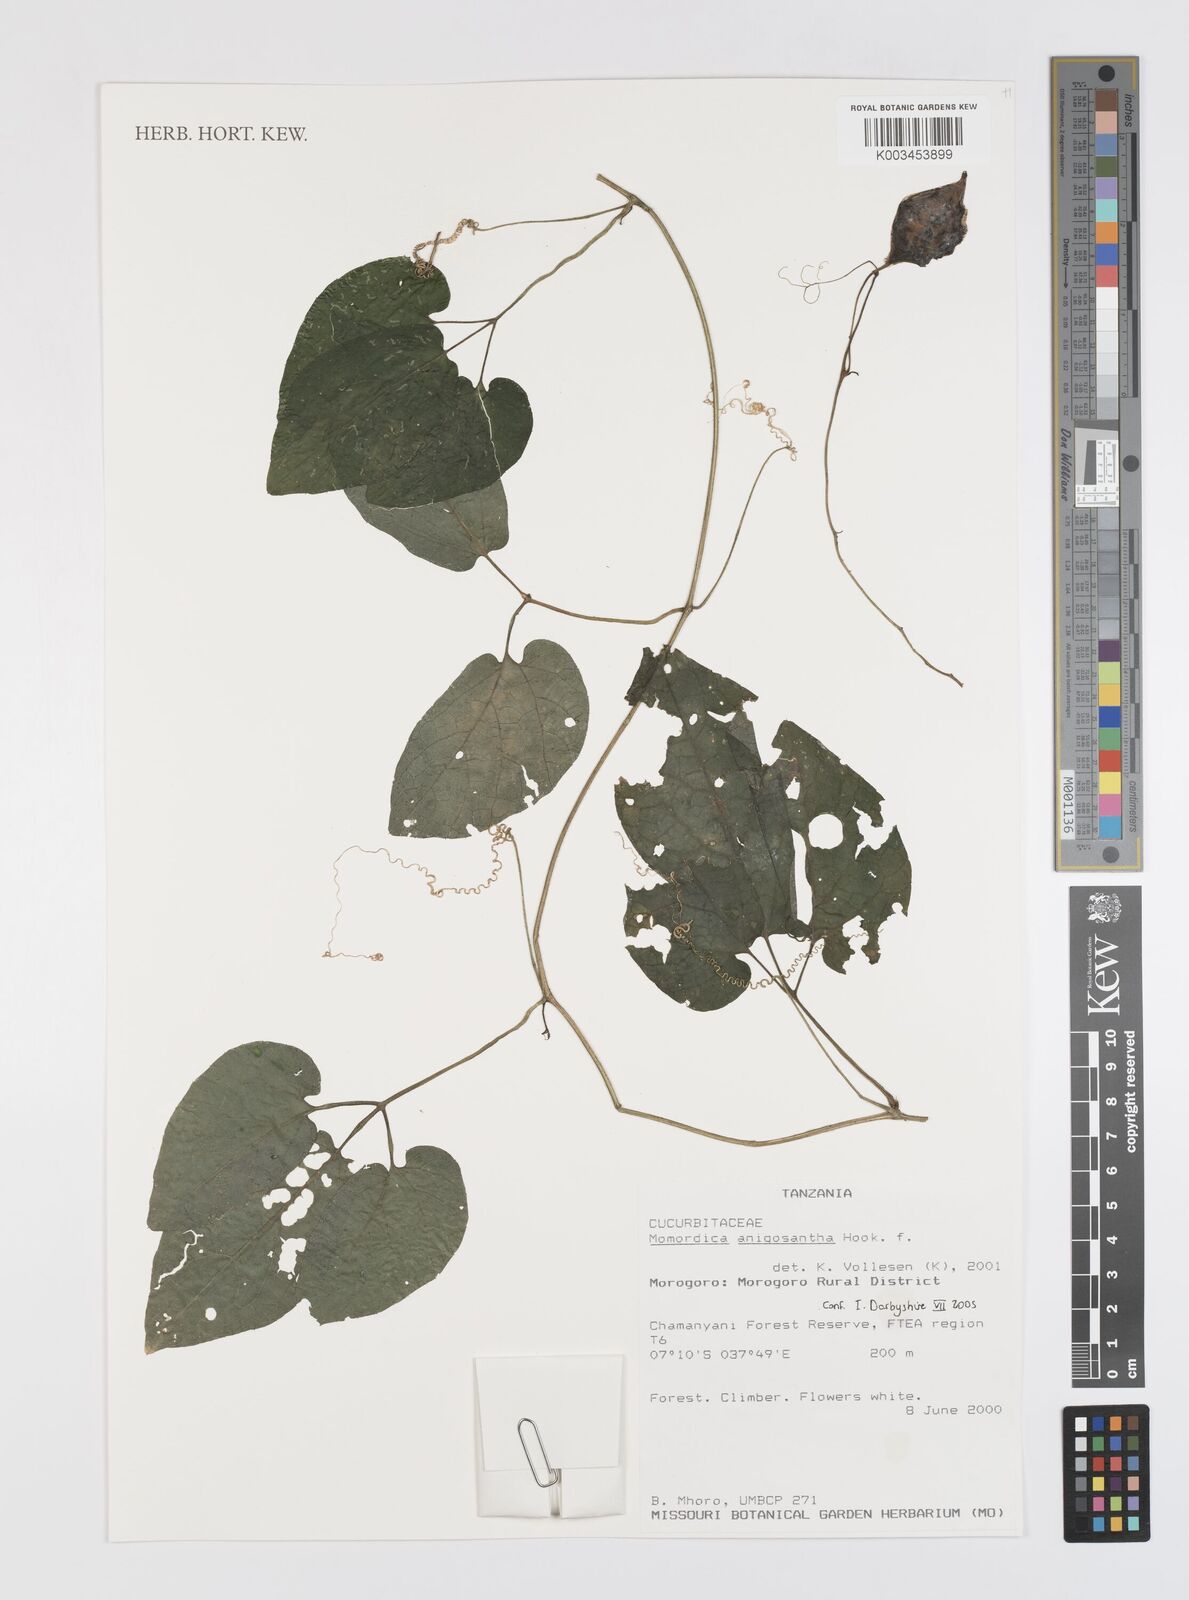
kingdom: Plantae
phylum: Tracheophyta
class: Magnoliopsida
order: Cucurbitales
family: Cucurbitaceae
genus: Momordica
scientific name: Momordica anigosantha
